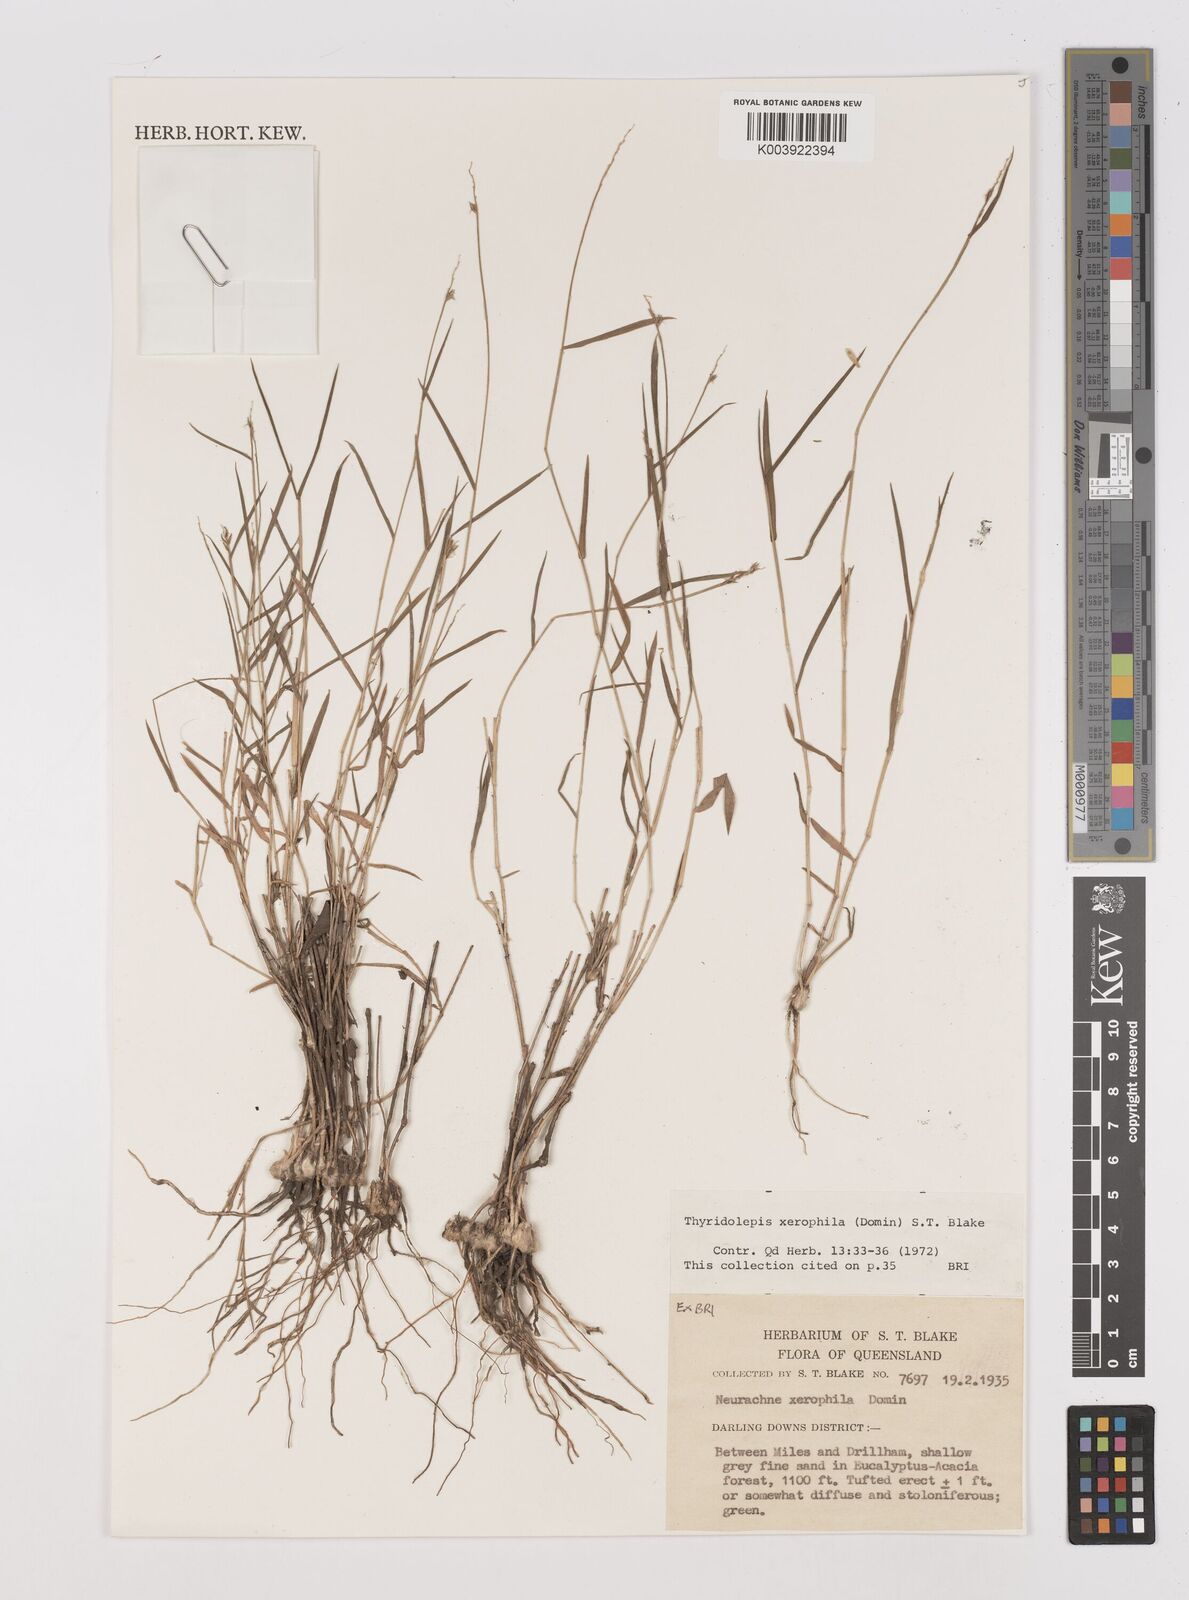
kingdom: Plantae
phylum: Tracheophyta
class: Liliopsida
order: Poales
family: Poaceae
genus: Thyridolepis
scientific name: Thyridolepis xerophila
